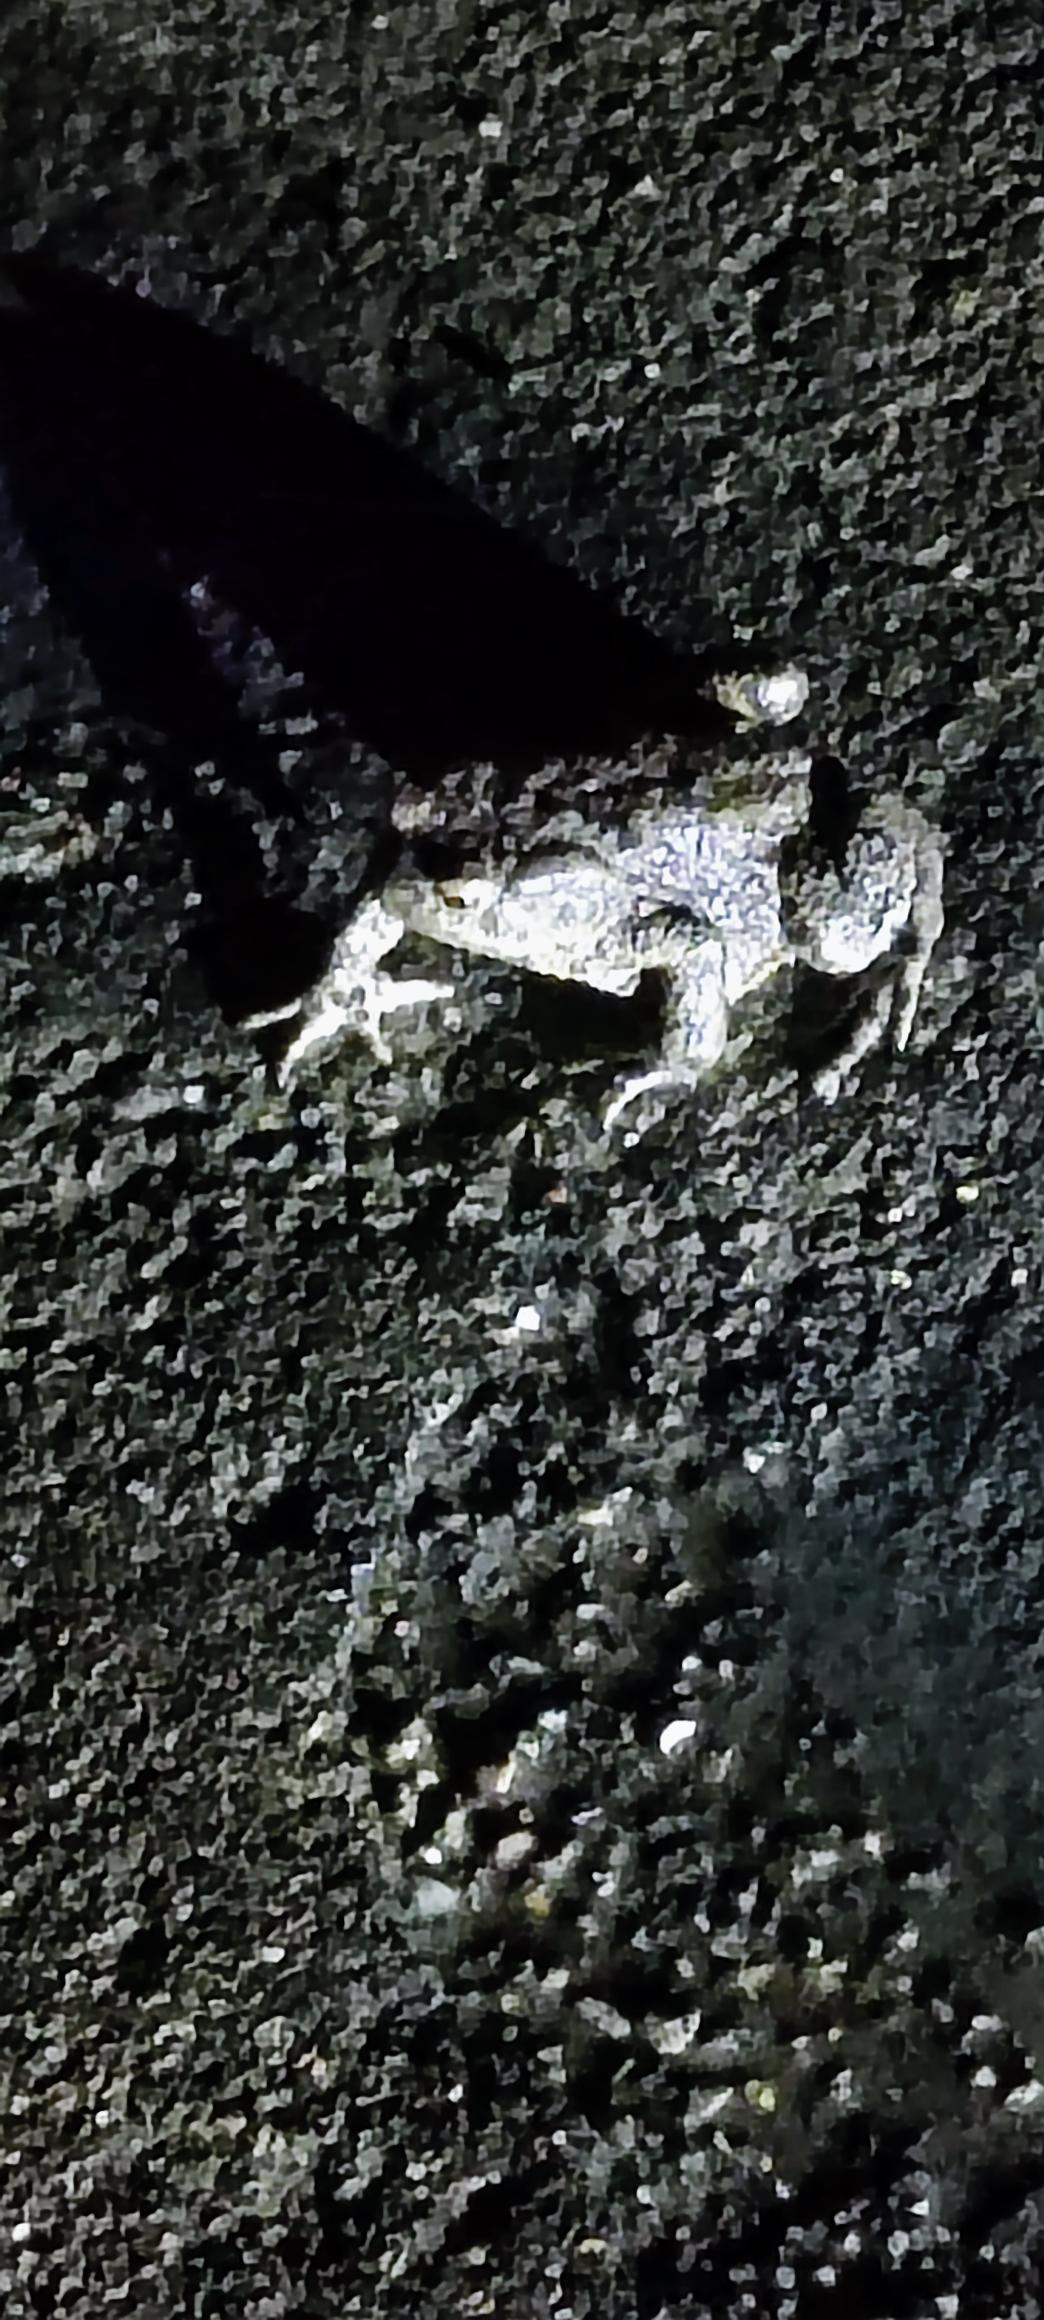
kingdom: Animalia
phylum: Chordata
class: Amphibia
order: Anura
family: Bufonidae
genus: Bufo
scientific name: Bufo bufo
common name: Skrubtudse
